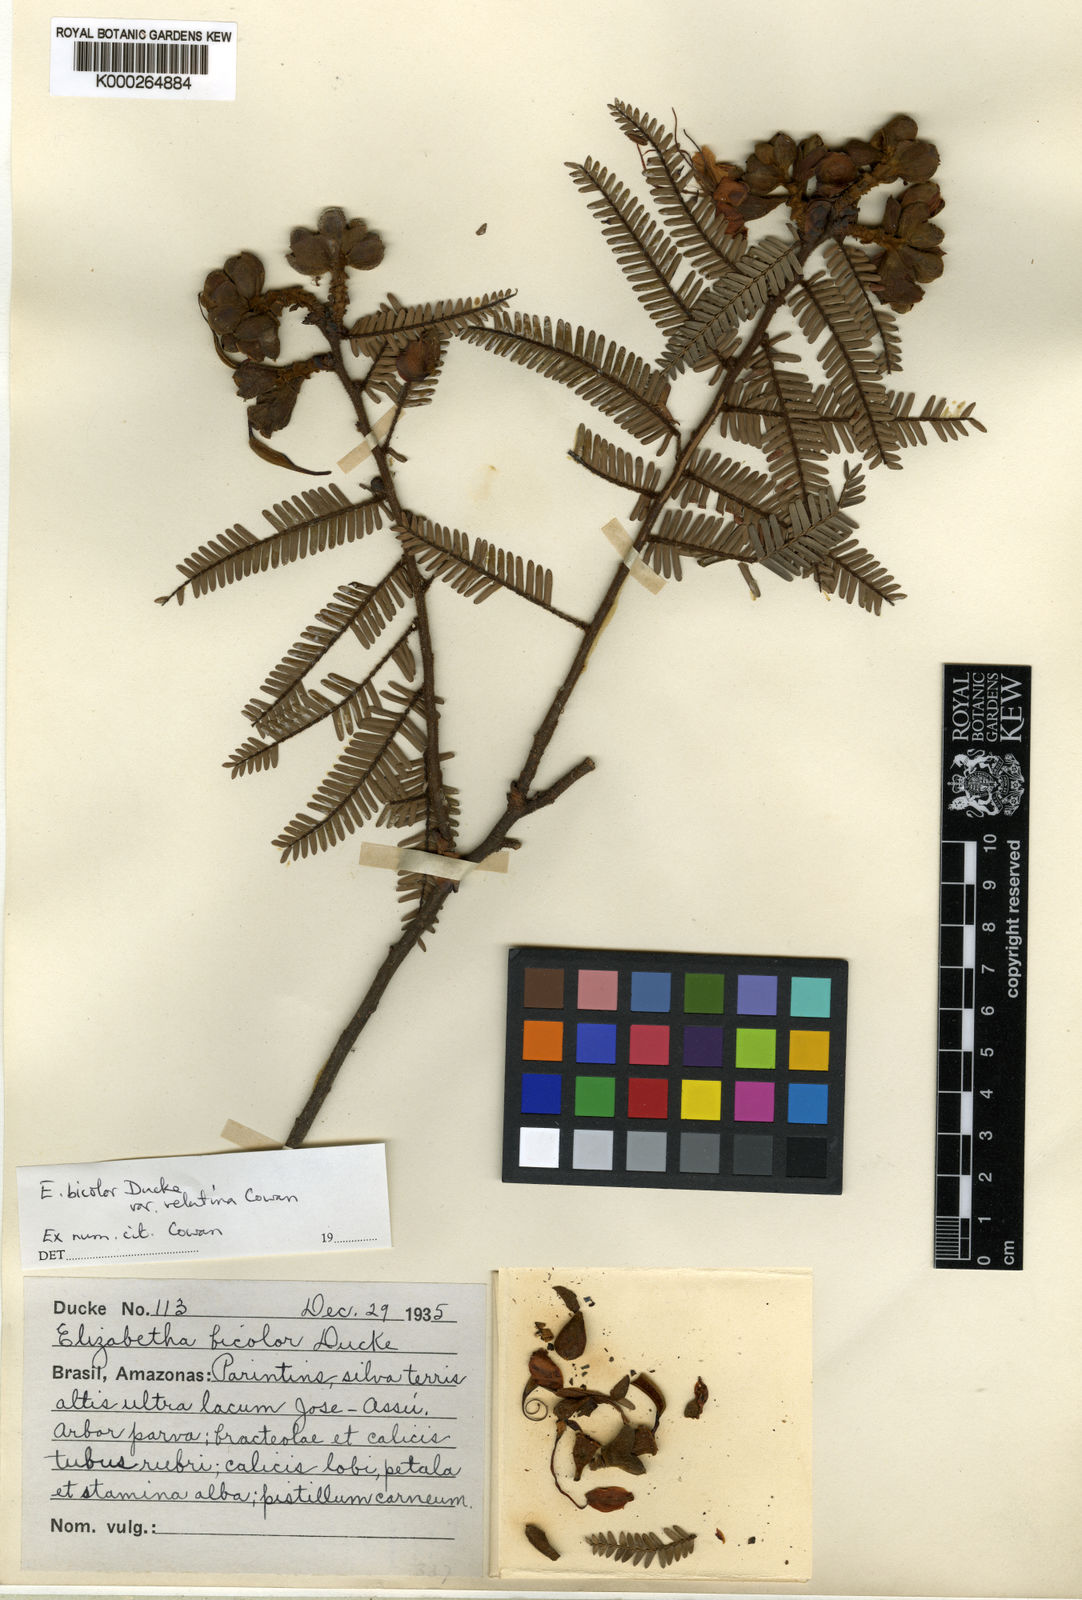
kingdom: Plantae
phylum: Tracheophyta
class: Magnoliopsida
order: Fabales
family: Fabaceae
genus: Paloue
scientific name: Paloue bicolor
